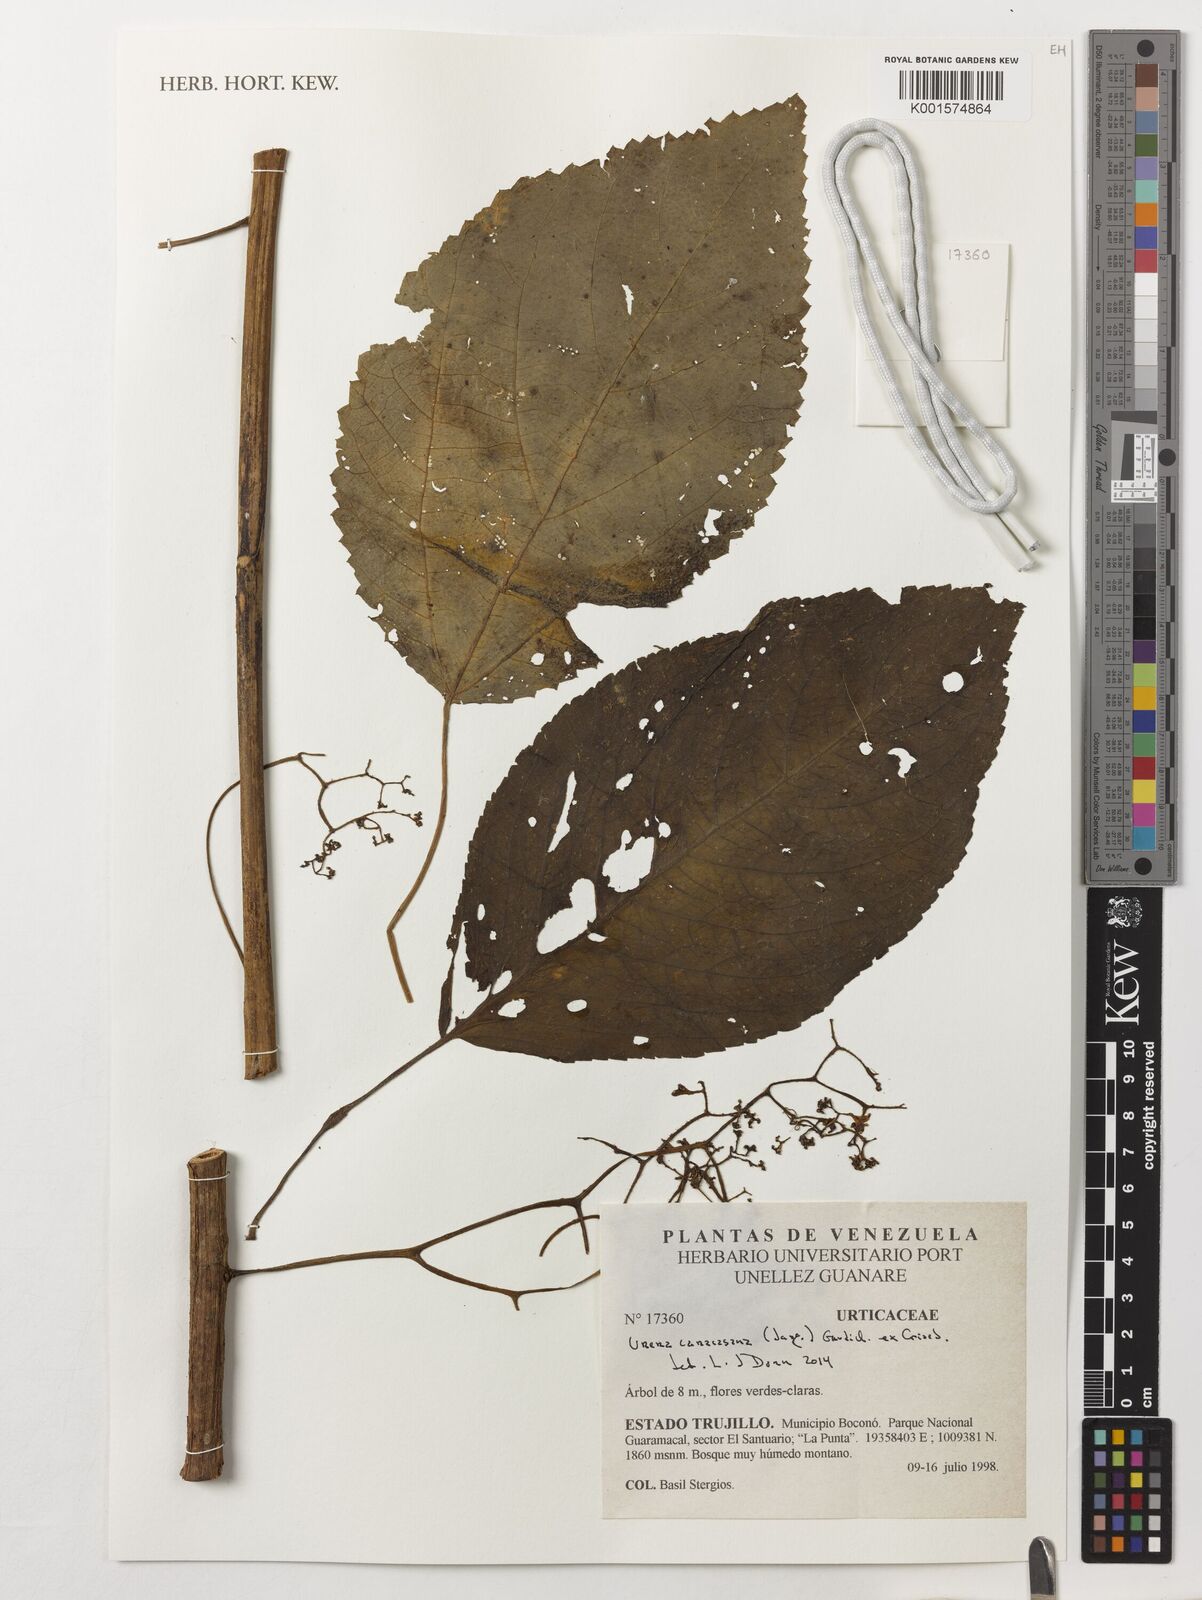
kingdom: Plantae
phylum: Tracheophyta
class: Magnoliopsida
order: Rosales
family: Urticaceae
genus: Urera
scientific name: Urera caracasana
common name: Flameberry
